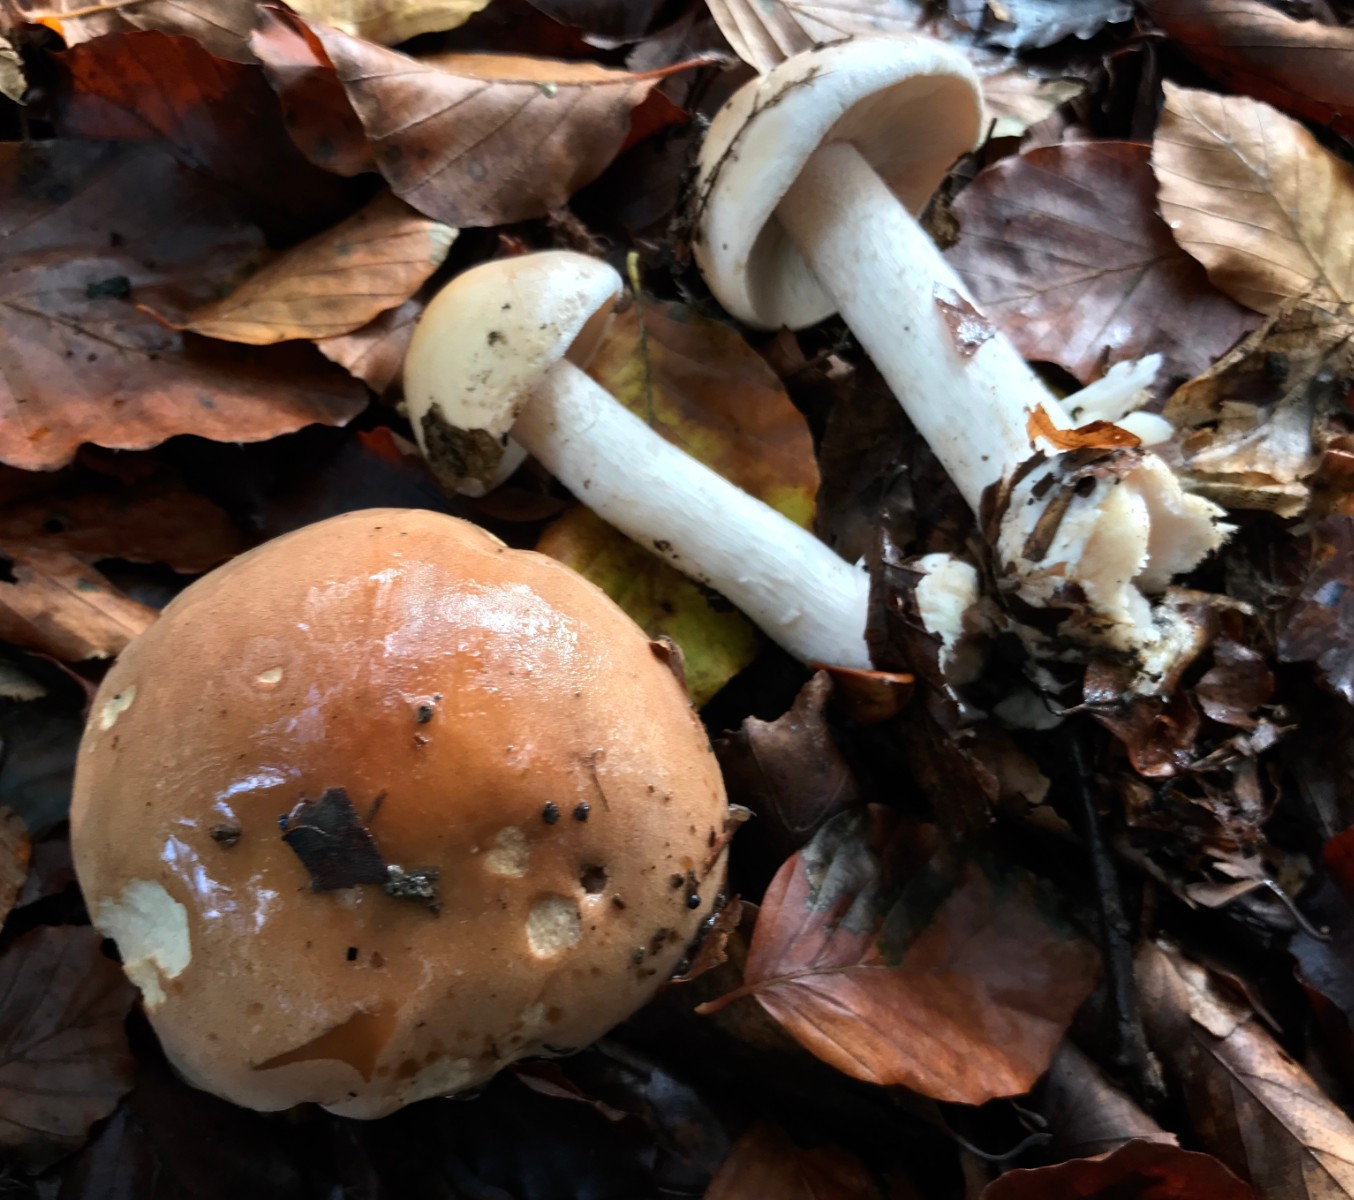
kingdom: Fungi
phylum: Basidiomycota
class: Agaricomycetes
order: Agaricales
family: Hymenogastraceae
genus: Hebeloma
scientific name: Hebeloma
